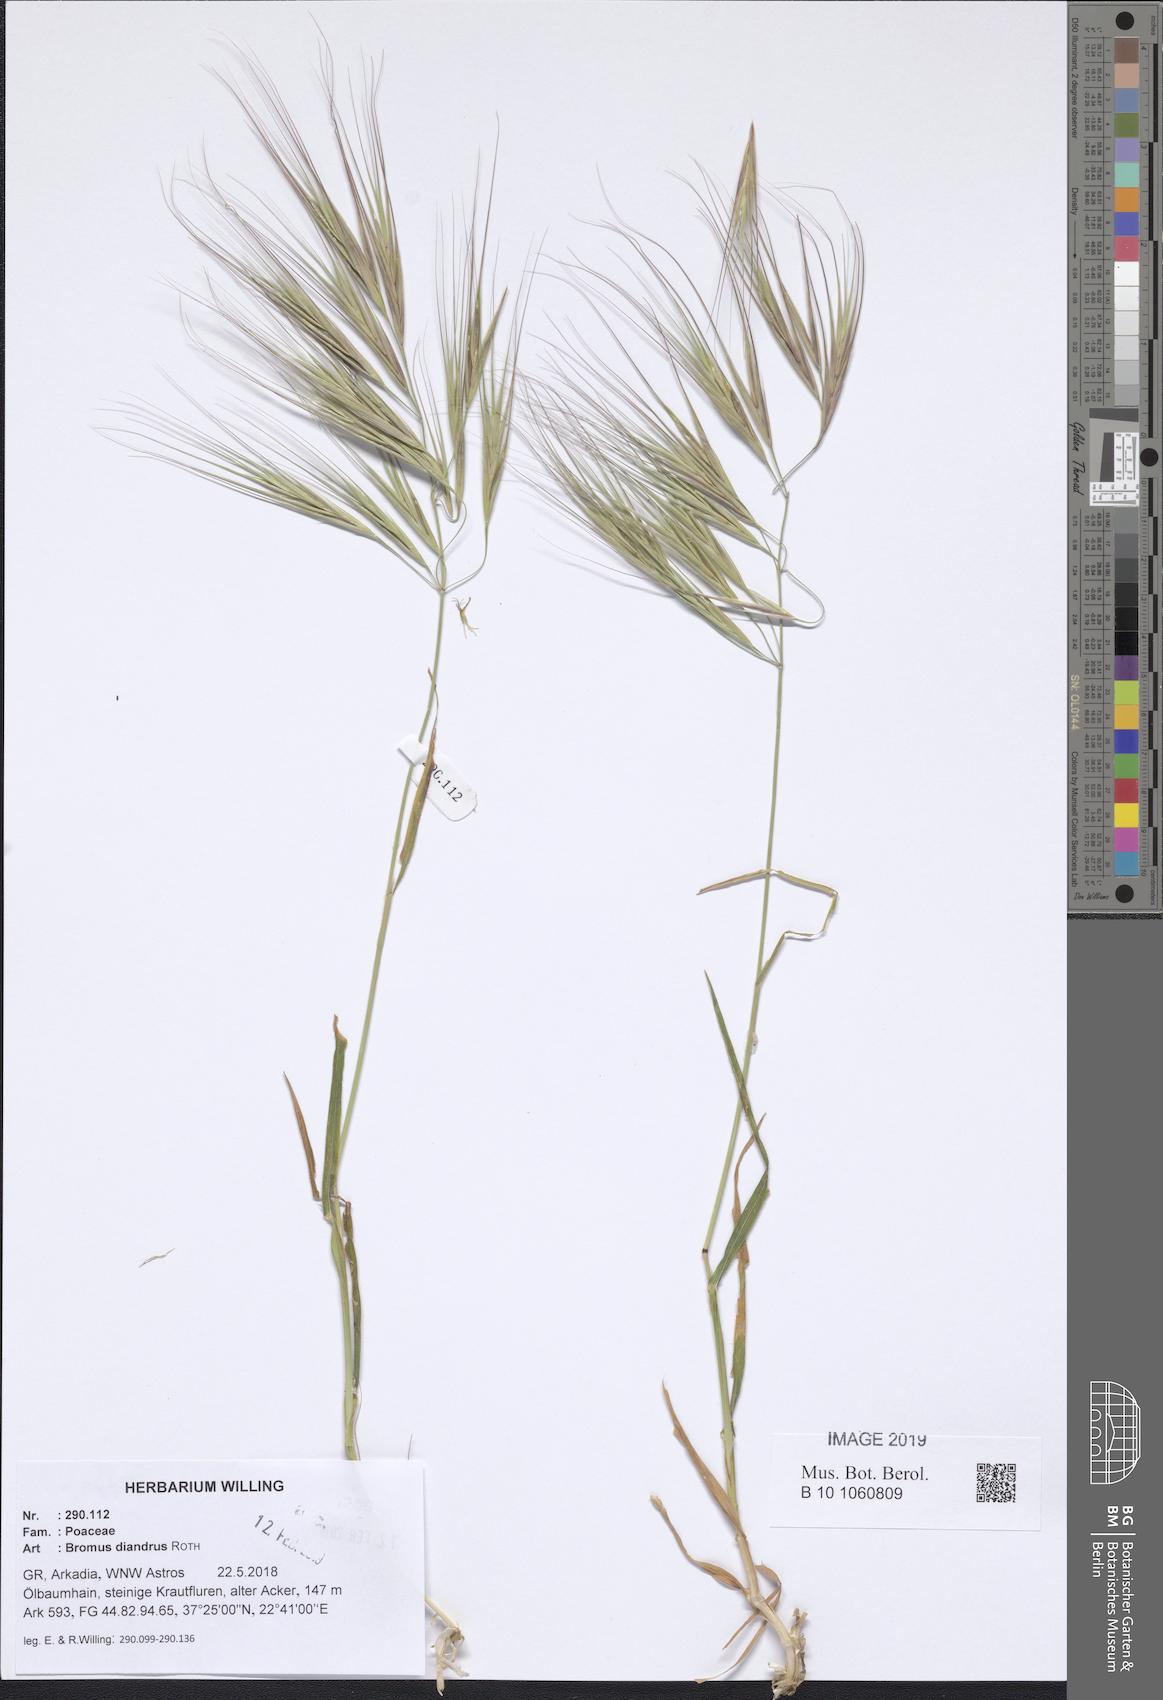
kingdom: Plantae
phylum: Tracheophyta
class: Liliopsida
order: Poales
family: Poaceae
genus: Bromus
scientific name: Bromus diandrus
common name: Ripgut brome
